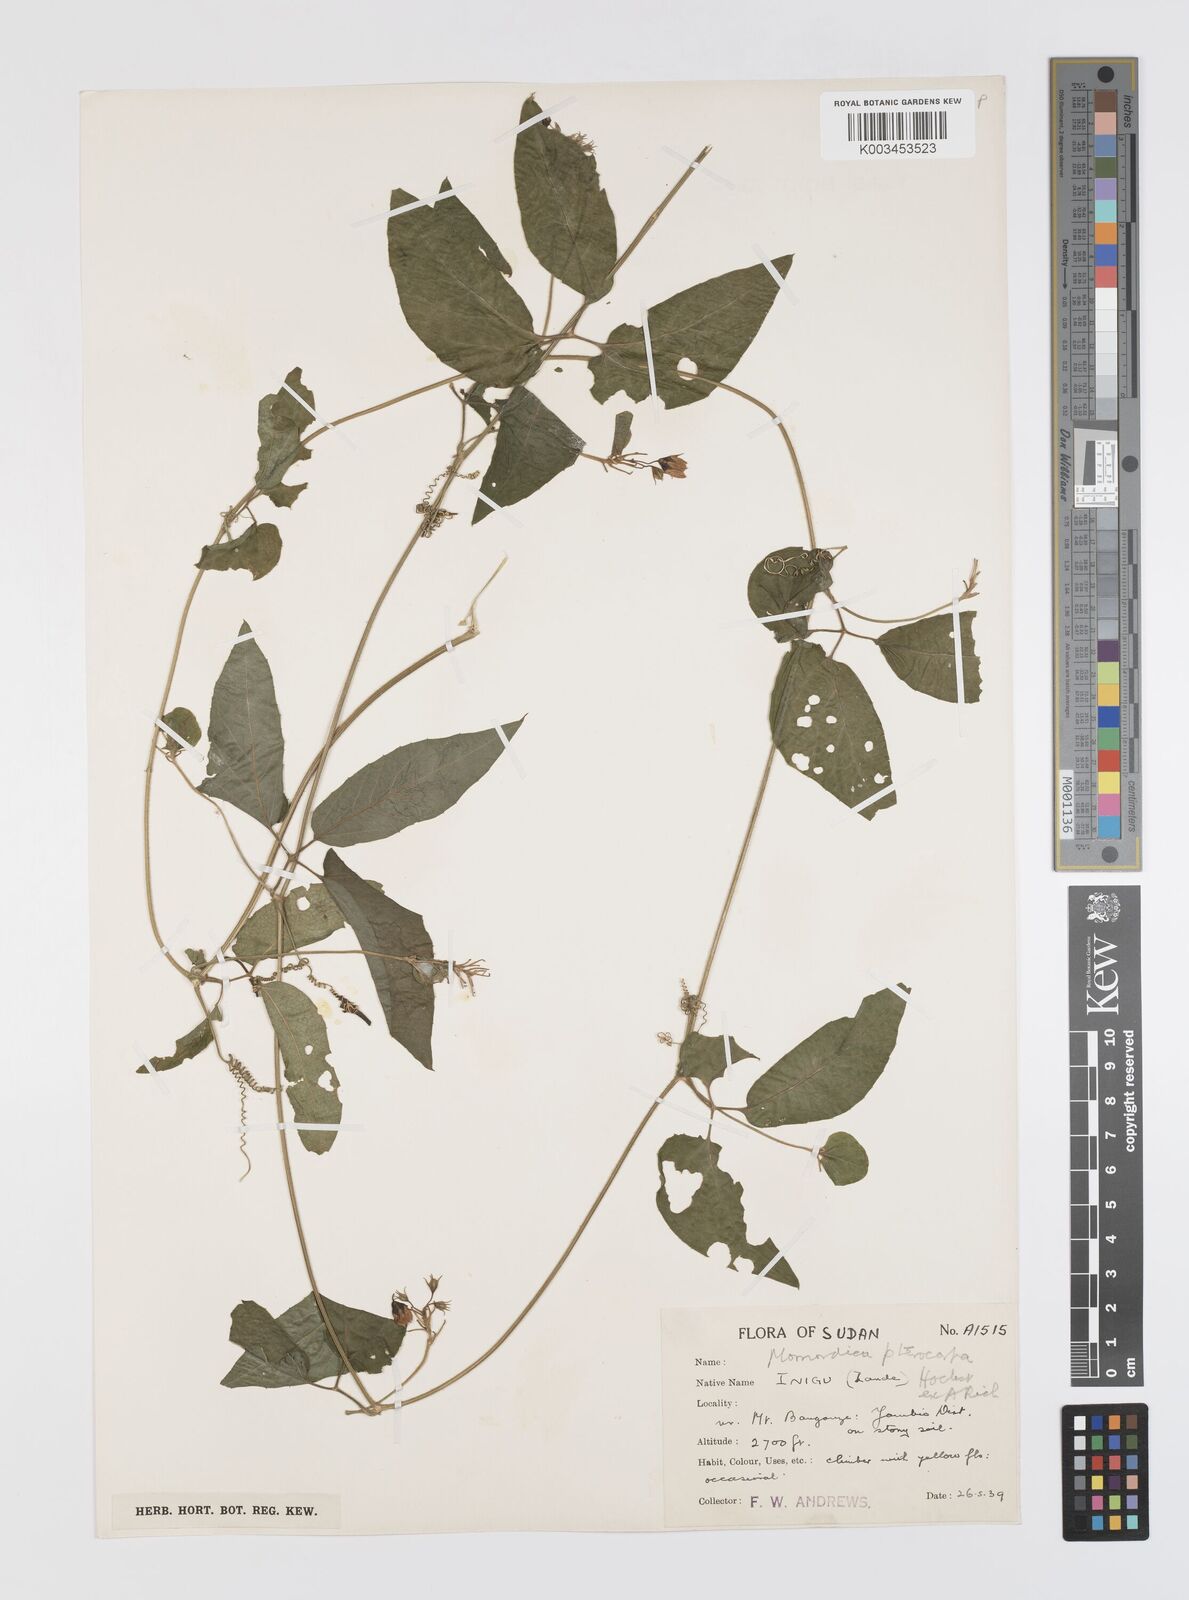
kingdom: Plantae
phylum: Tracheophyta
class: Magnoliopsida
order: Cucurbitales
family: Cucurbitaceae
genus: Momordica
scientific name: Momordica pterocarpa
